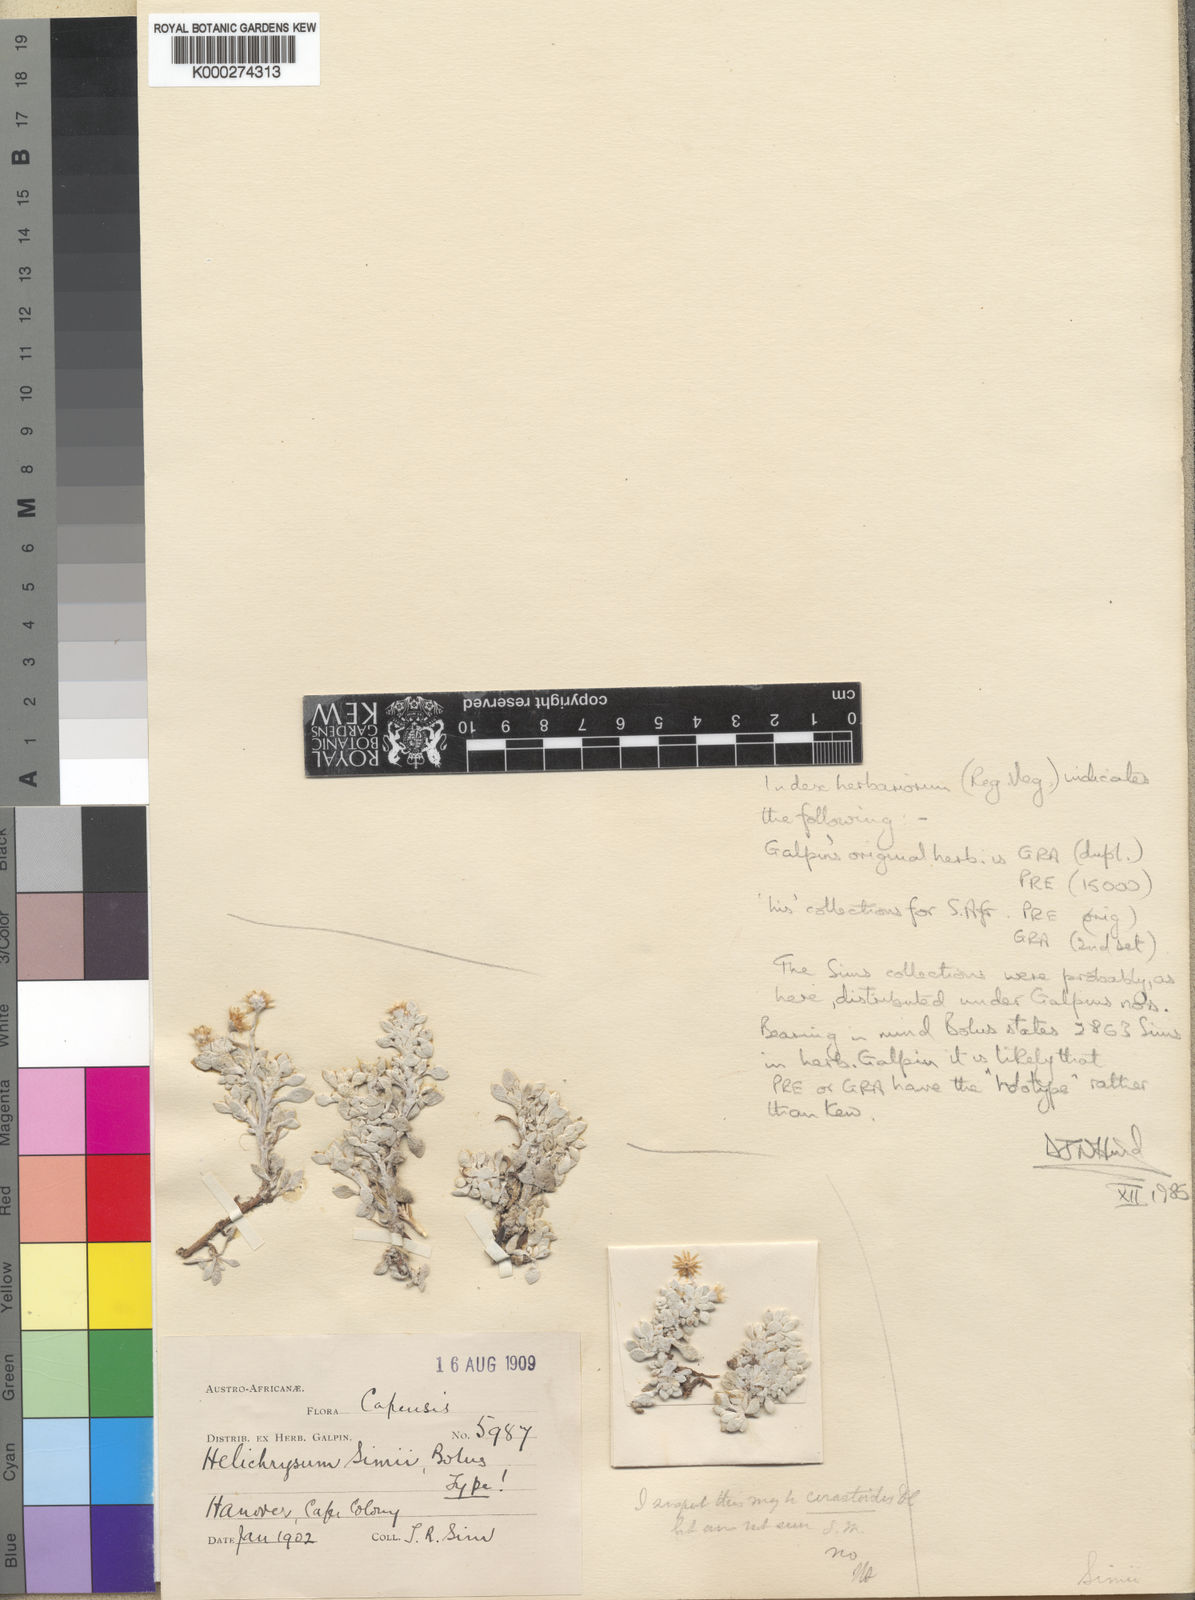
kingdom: Plantae
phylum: Tracheophyta
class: Magnoliopsida
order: Asterales
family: Asteraceae
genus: Gnaphalium
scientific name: Gnaphalium simii
